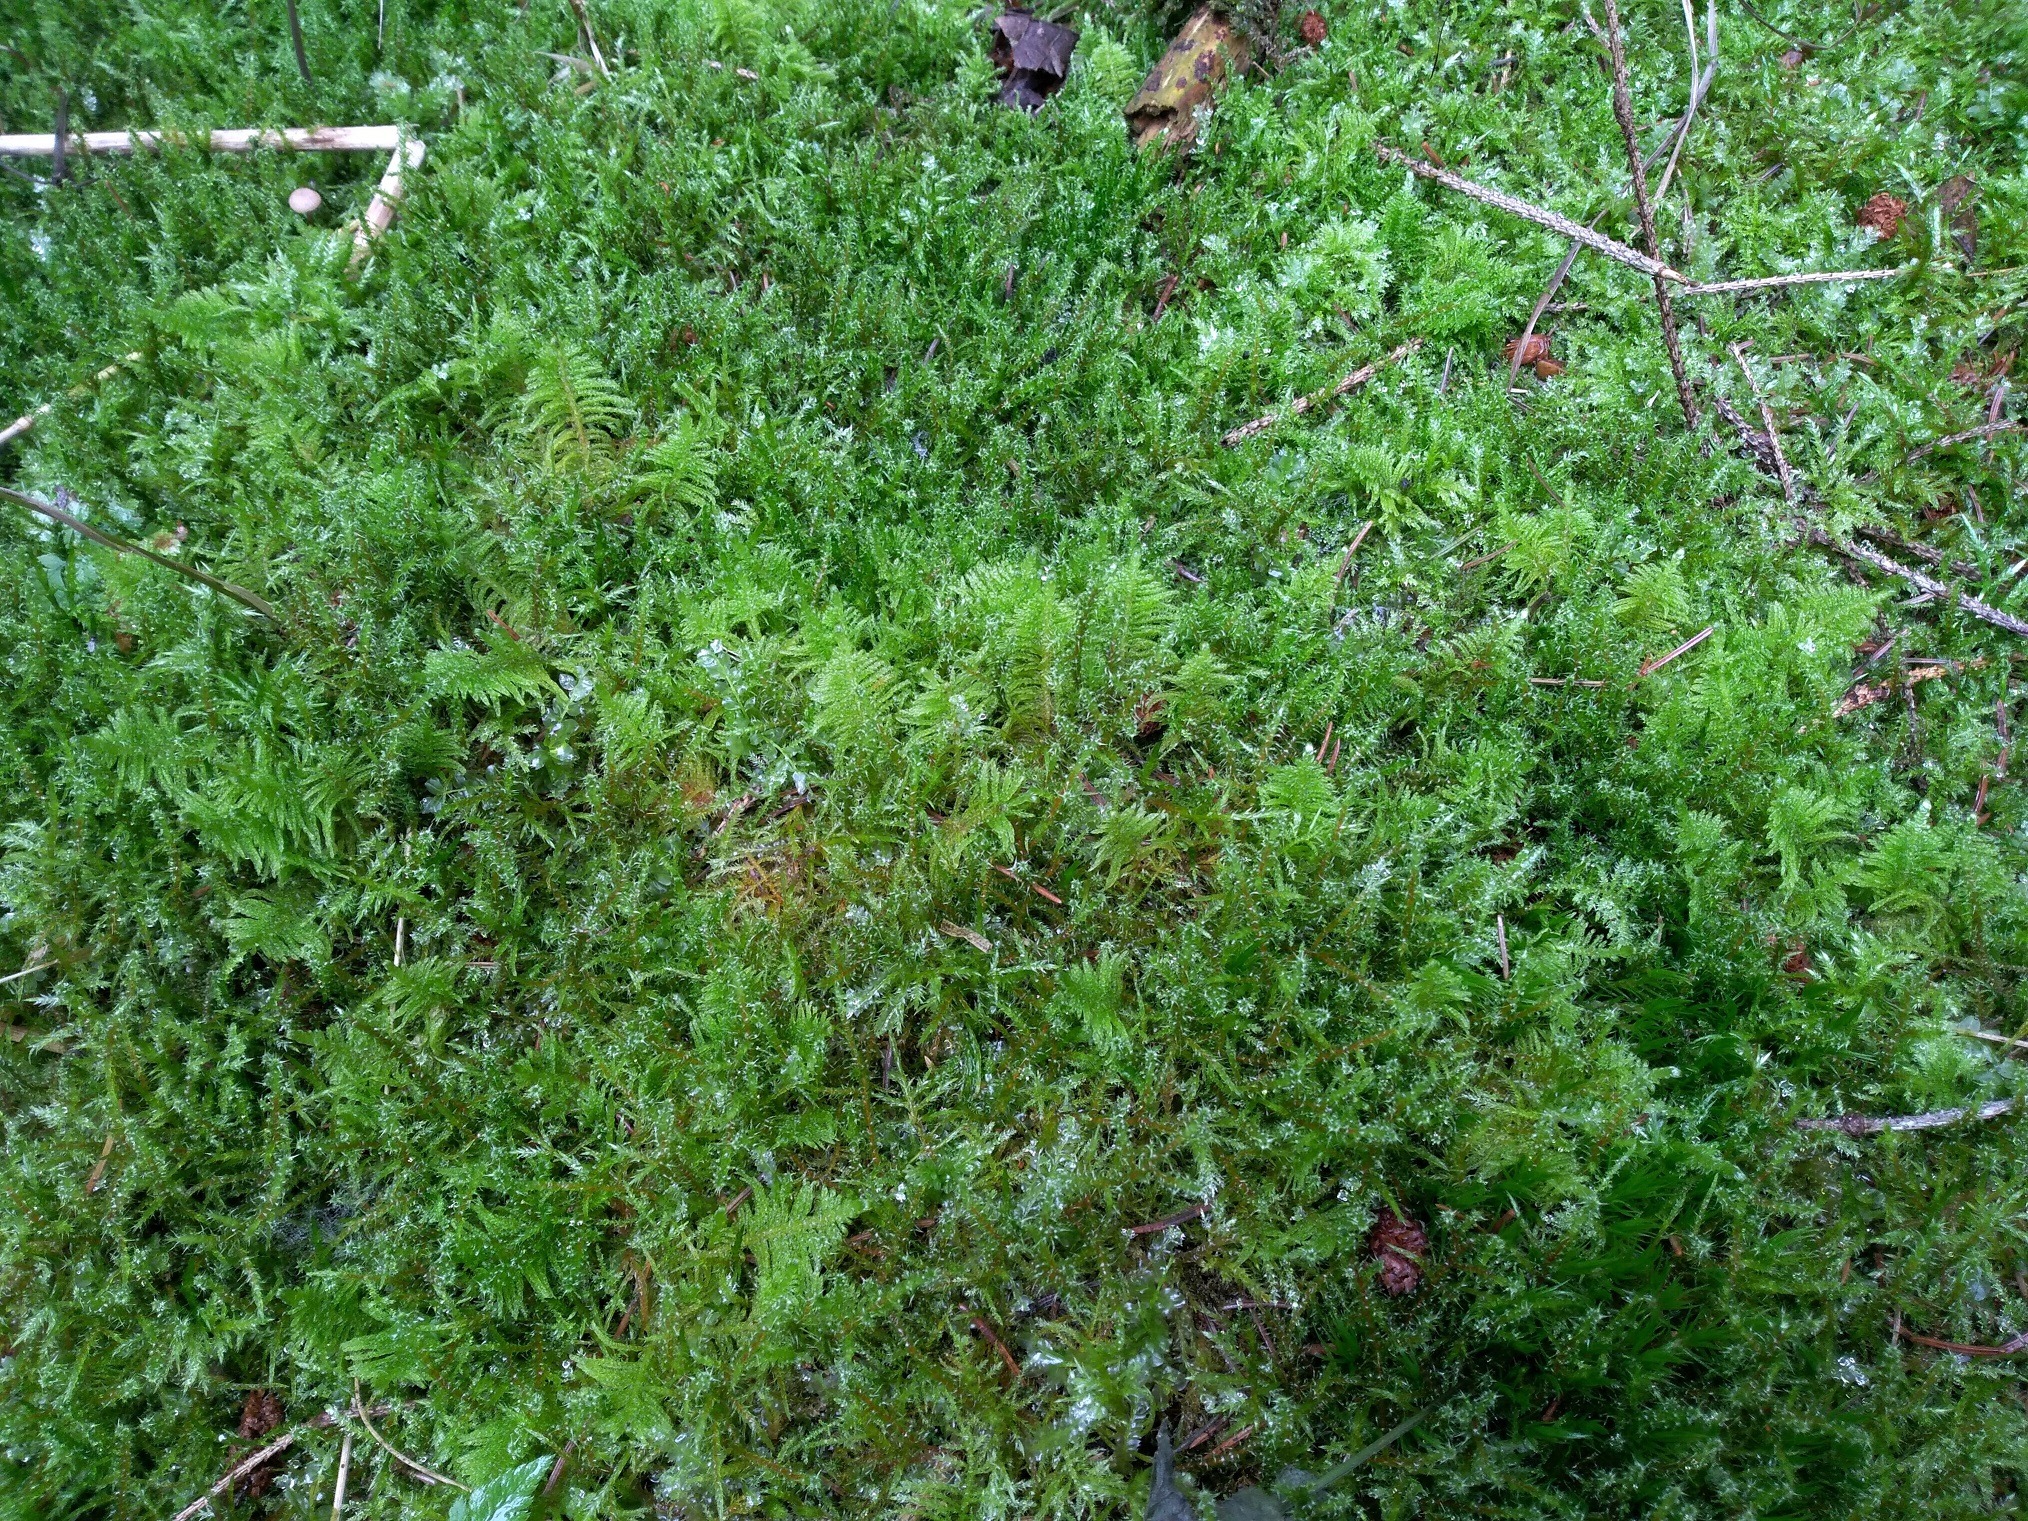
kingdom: Plantae
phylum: Bryophyta
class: Bryopsida
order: Hypnales
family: Pylaisiaceae
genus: Ptilium
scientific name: Ptilium crista-castrensis
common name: Fjer-kammos
